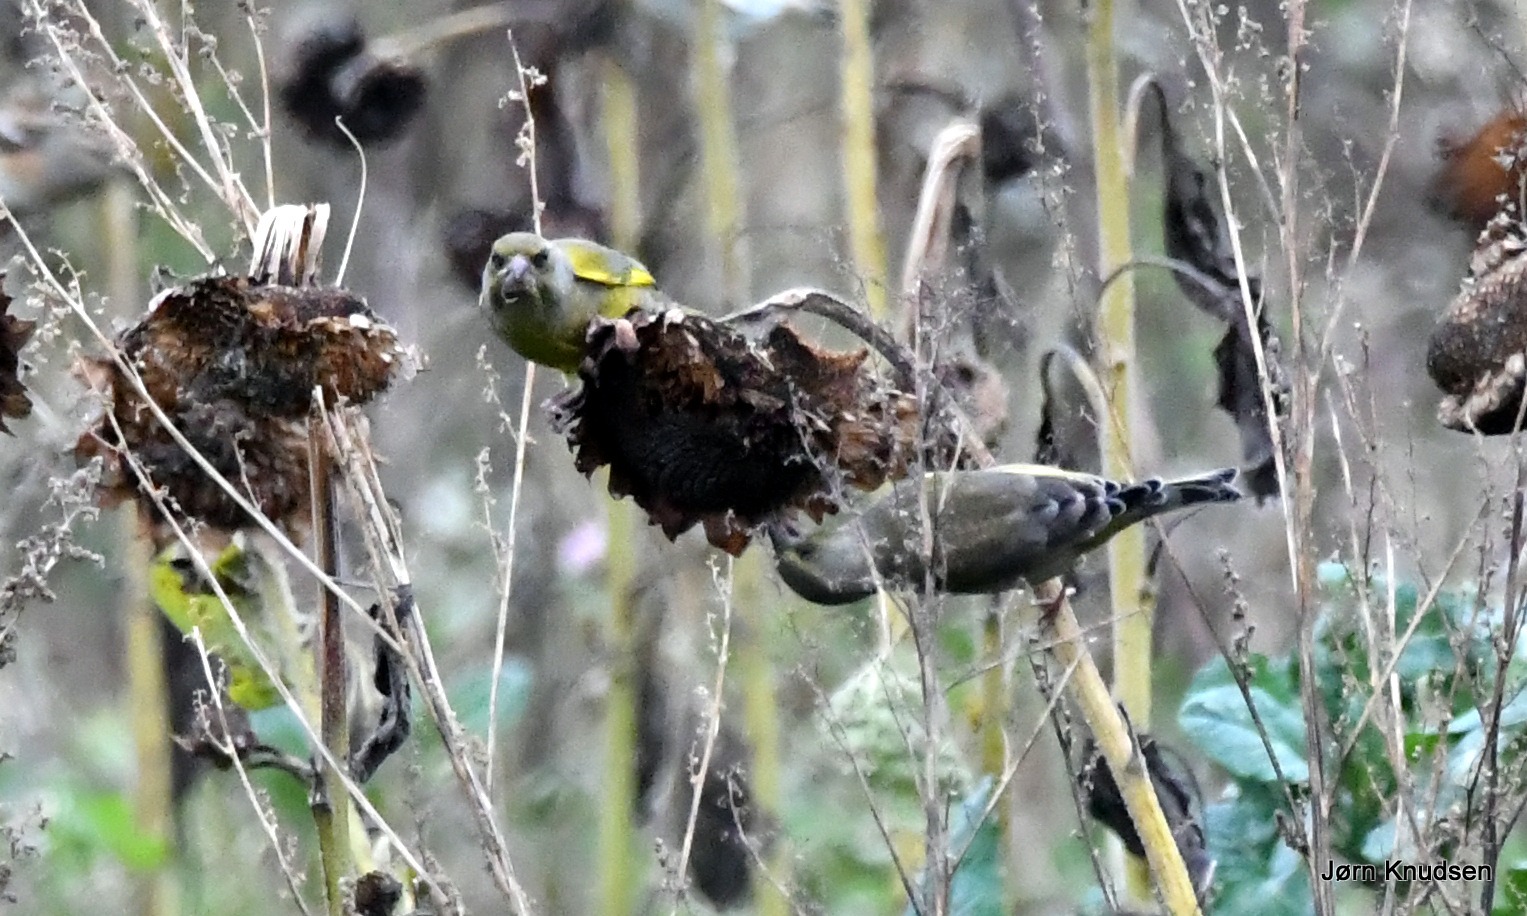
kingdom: Plantae
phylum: Tracheophyta
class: Liliopsida
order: Poales
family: Poaceae
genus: Chloris
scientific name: Chloris chloris
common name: Grønirisk
